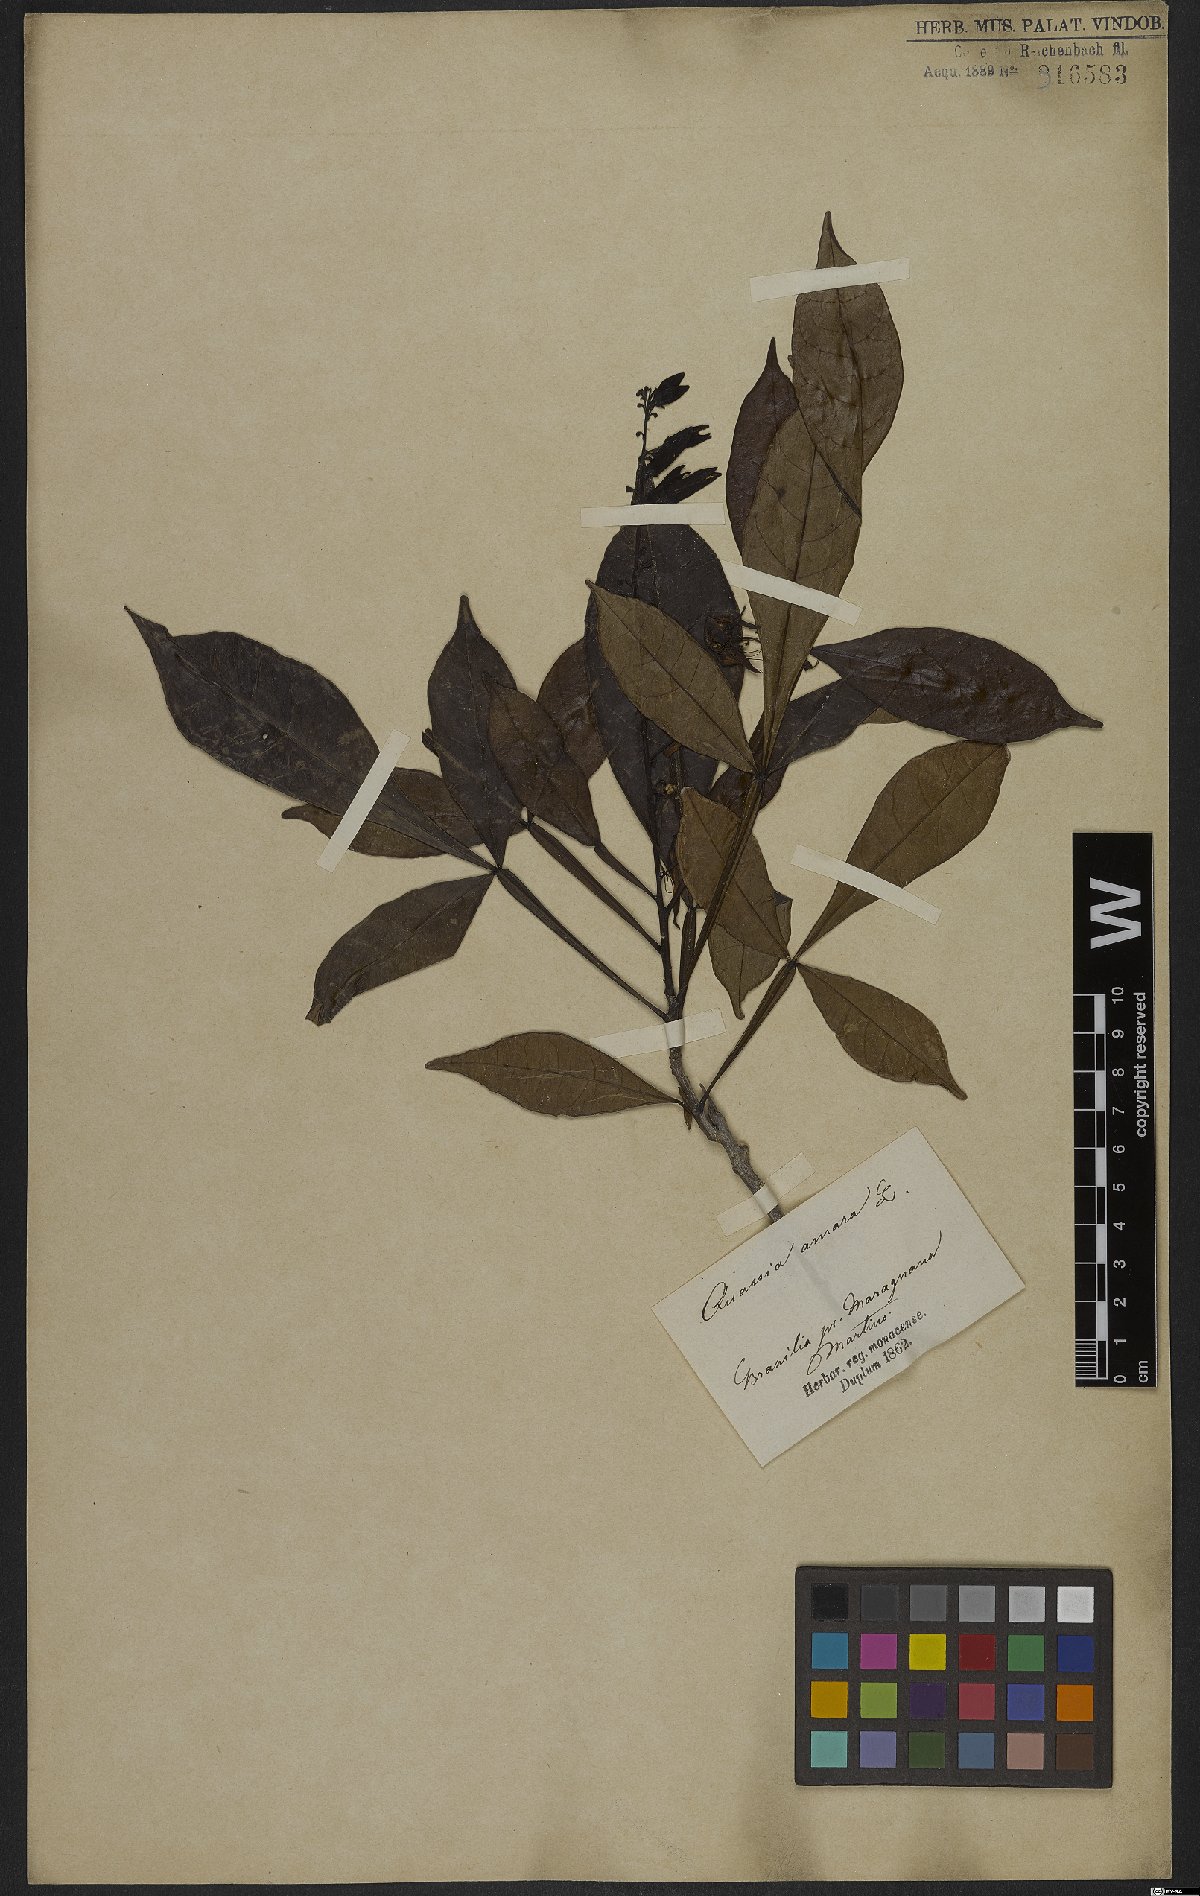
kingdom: Plantae
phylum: Tracheophyta
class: Magnoliopsida
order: Sapindales
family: Simaroubaceae
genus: Quassia
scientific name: Quassia amara
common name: Quassia
